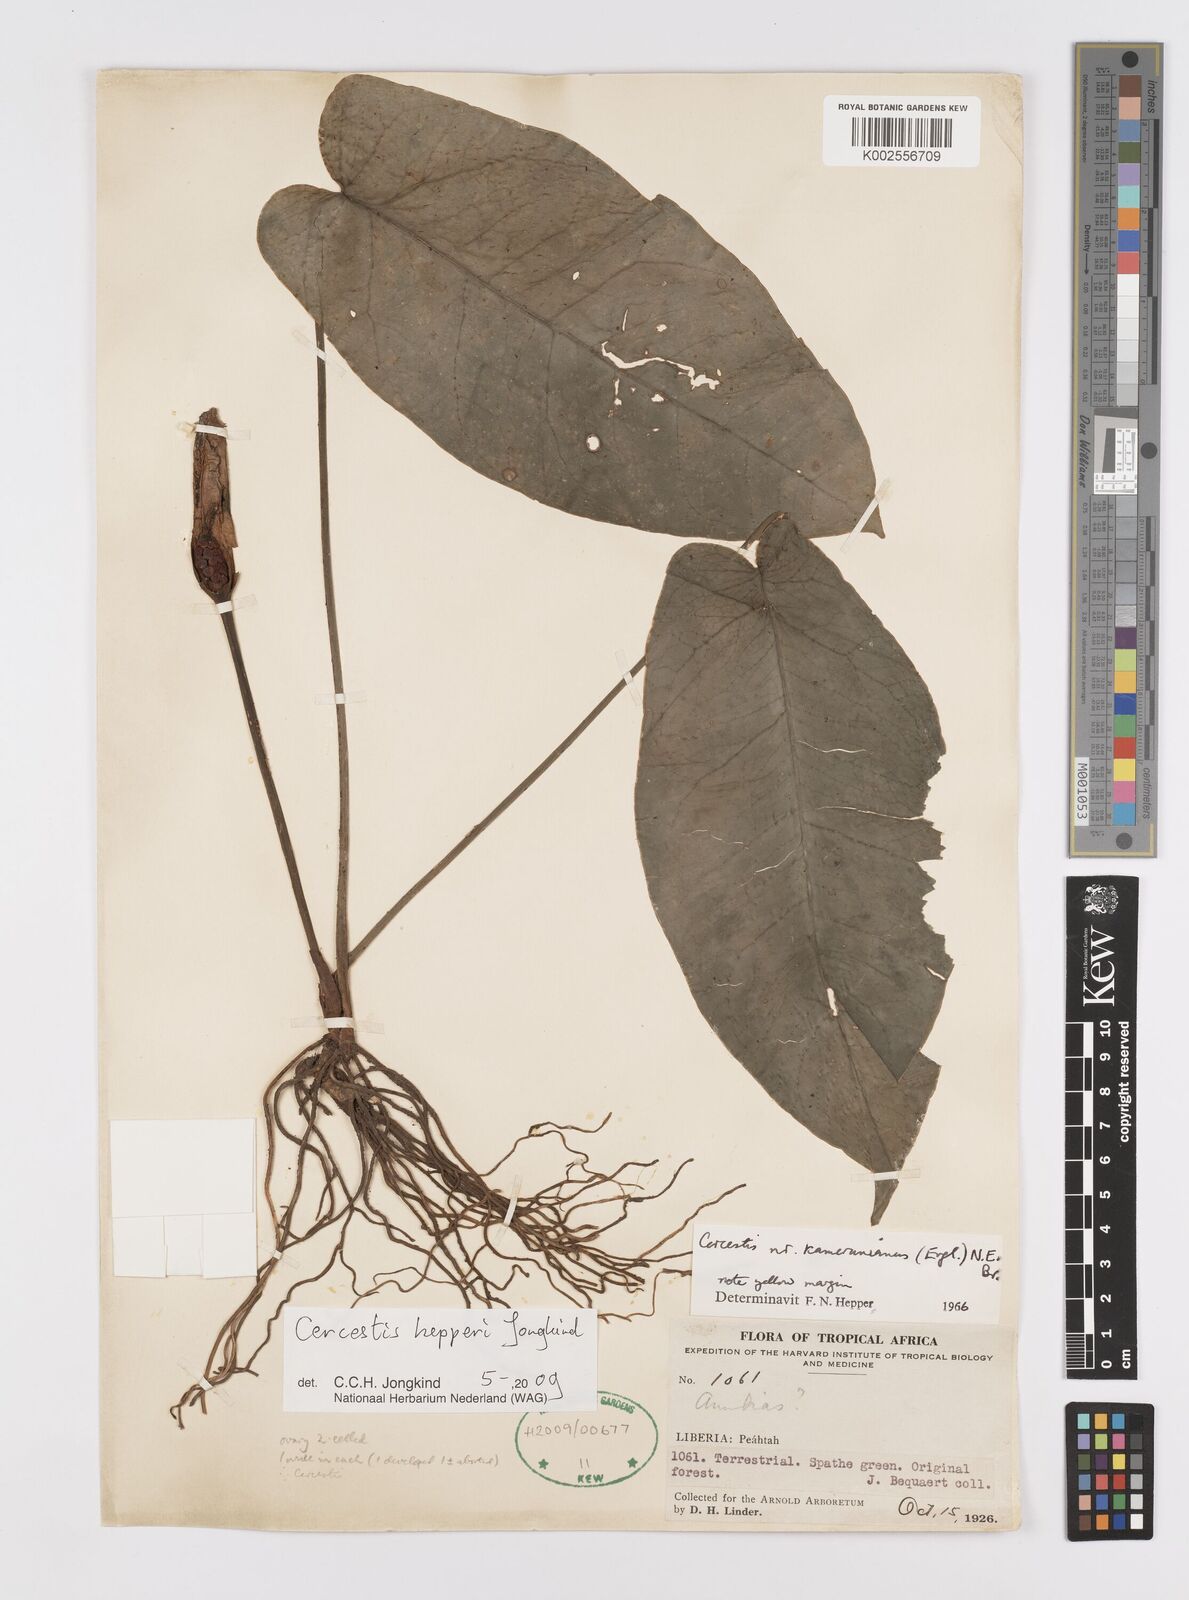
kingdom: Plantae
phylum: Tracheophyta
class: Liliopsida
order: Alismatales
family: Araceae
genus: Cercestis
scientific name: Cercestis hepperi
